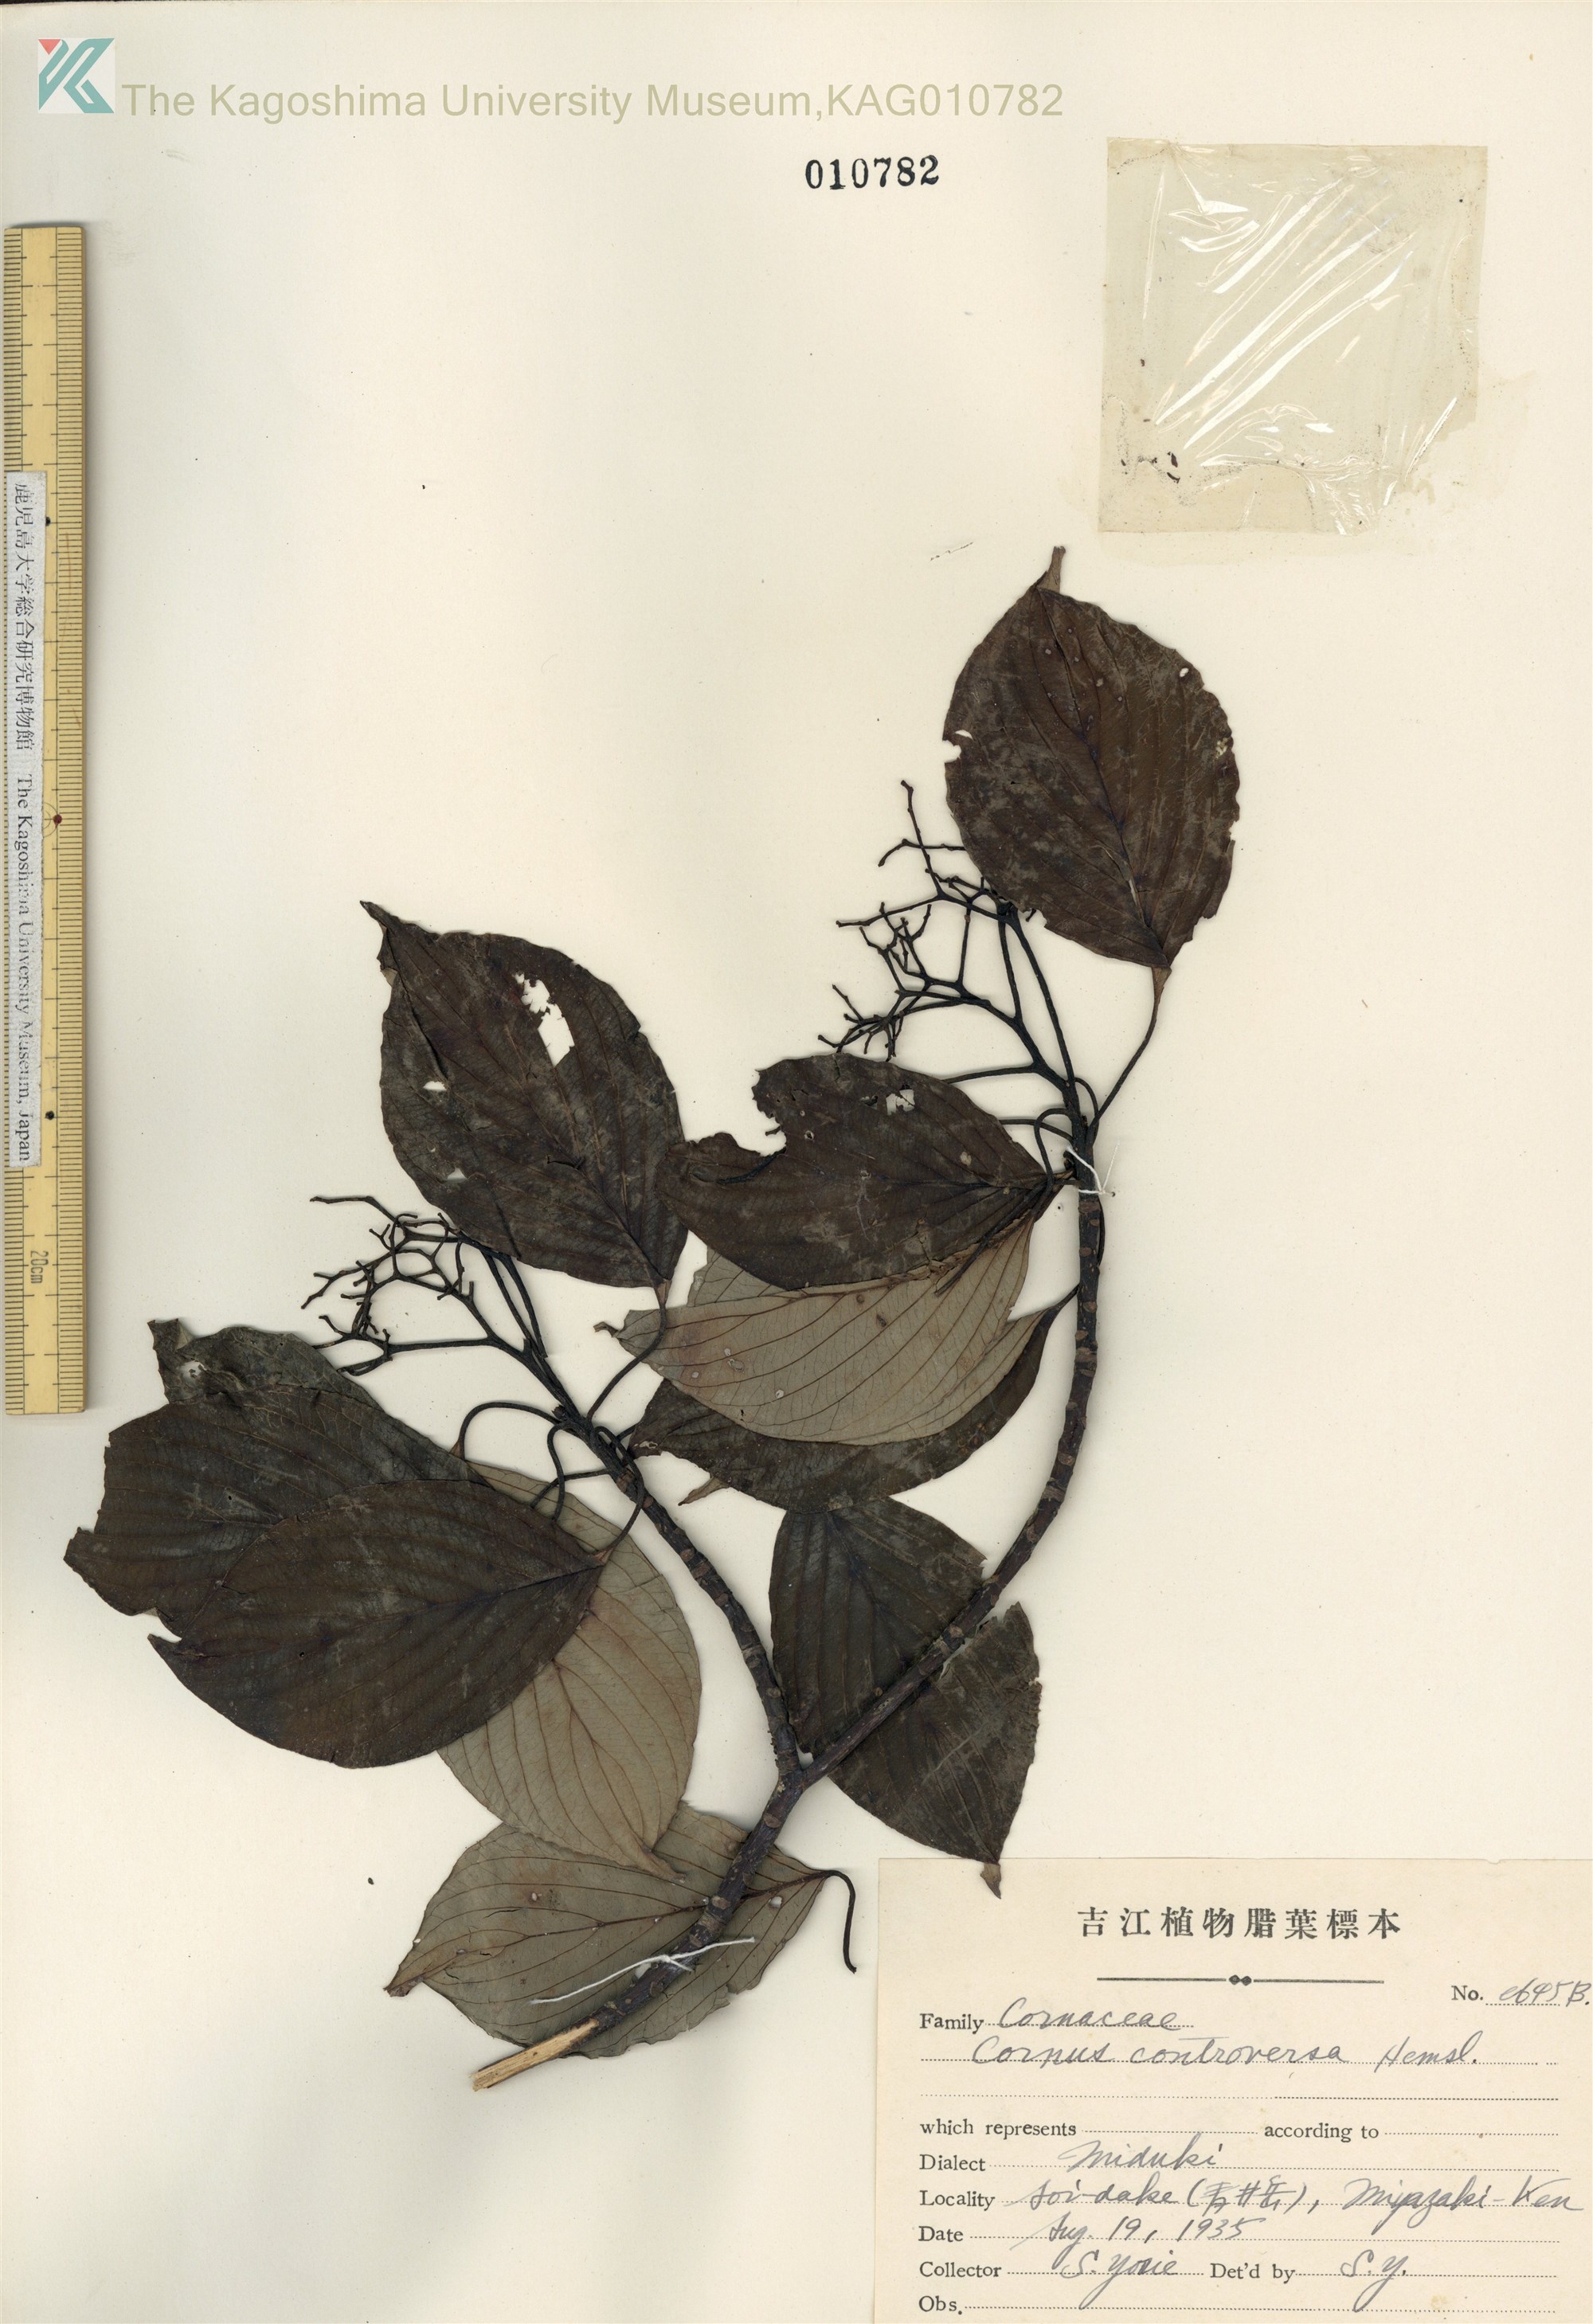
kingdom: Plantae
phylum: Tracheophyta
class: Magnoliopsida
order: Cornales
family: Cornaceae
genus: Cornus
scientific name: Cornus controversa
